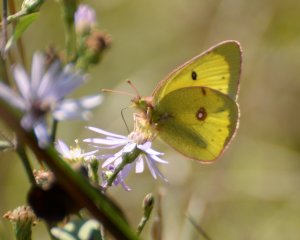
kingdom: Animalia
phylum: Arthropoda
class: Insecta
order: Lepidoptera
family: Pieridae
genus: Colias
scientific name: Colias
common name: Clouded Yellows
